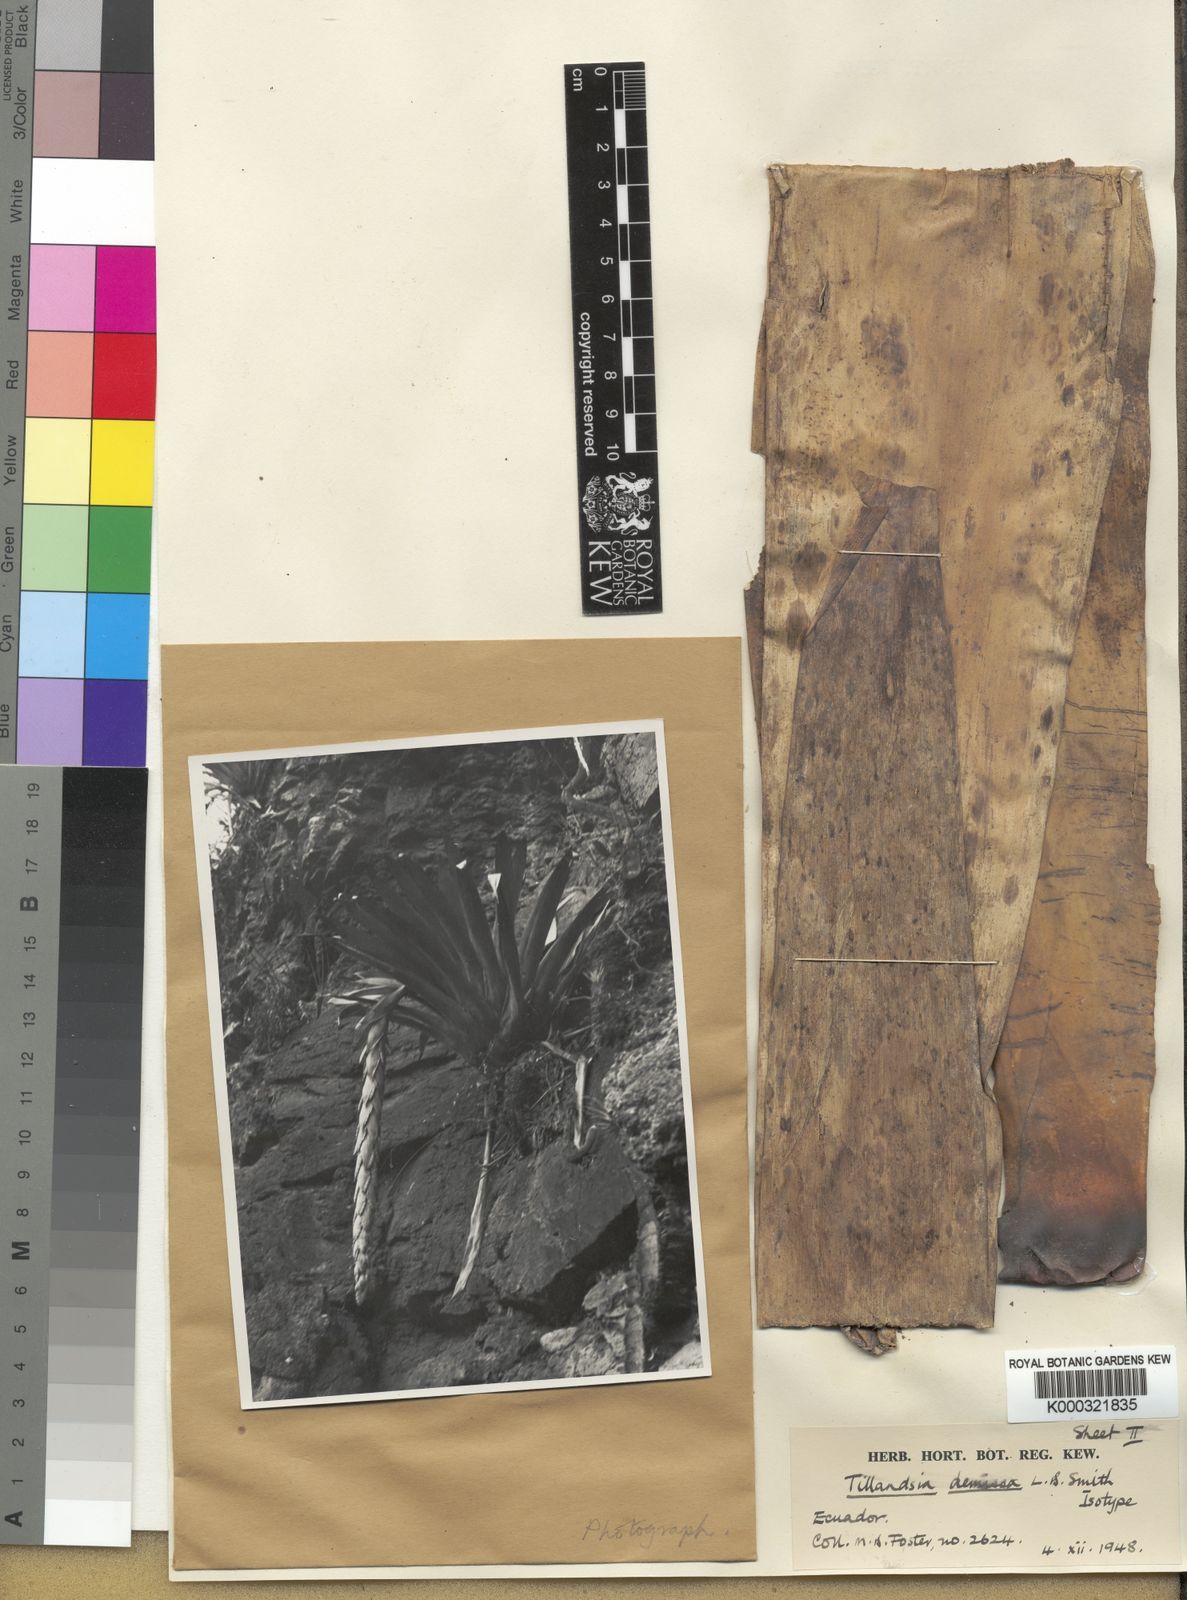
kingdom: Plantae
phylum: Tracheophyta
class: Liliopsida
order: Poales
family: Bromeliaceae
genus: Tillandsia
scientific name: Tillandsia demissa
